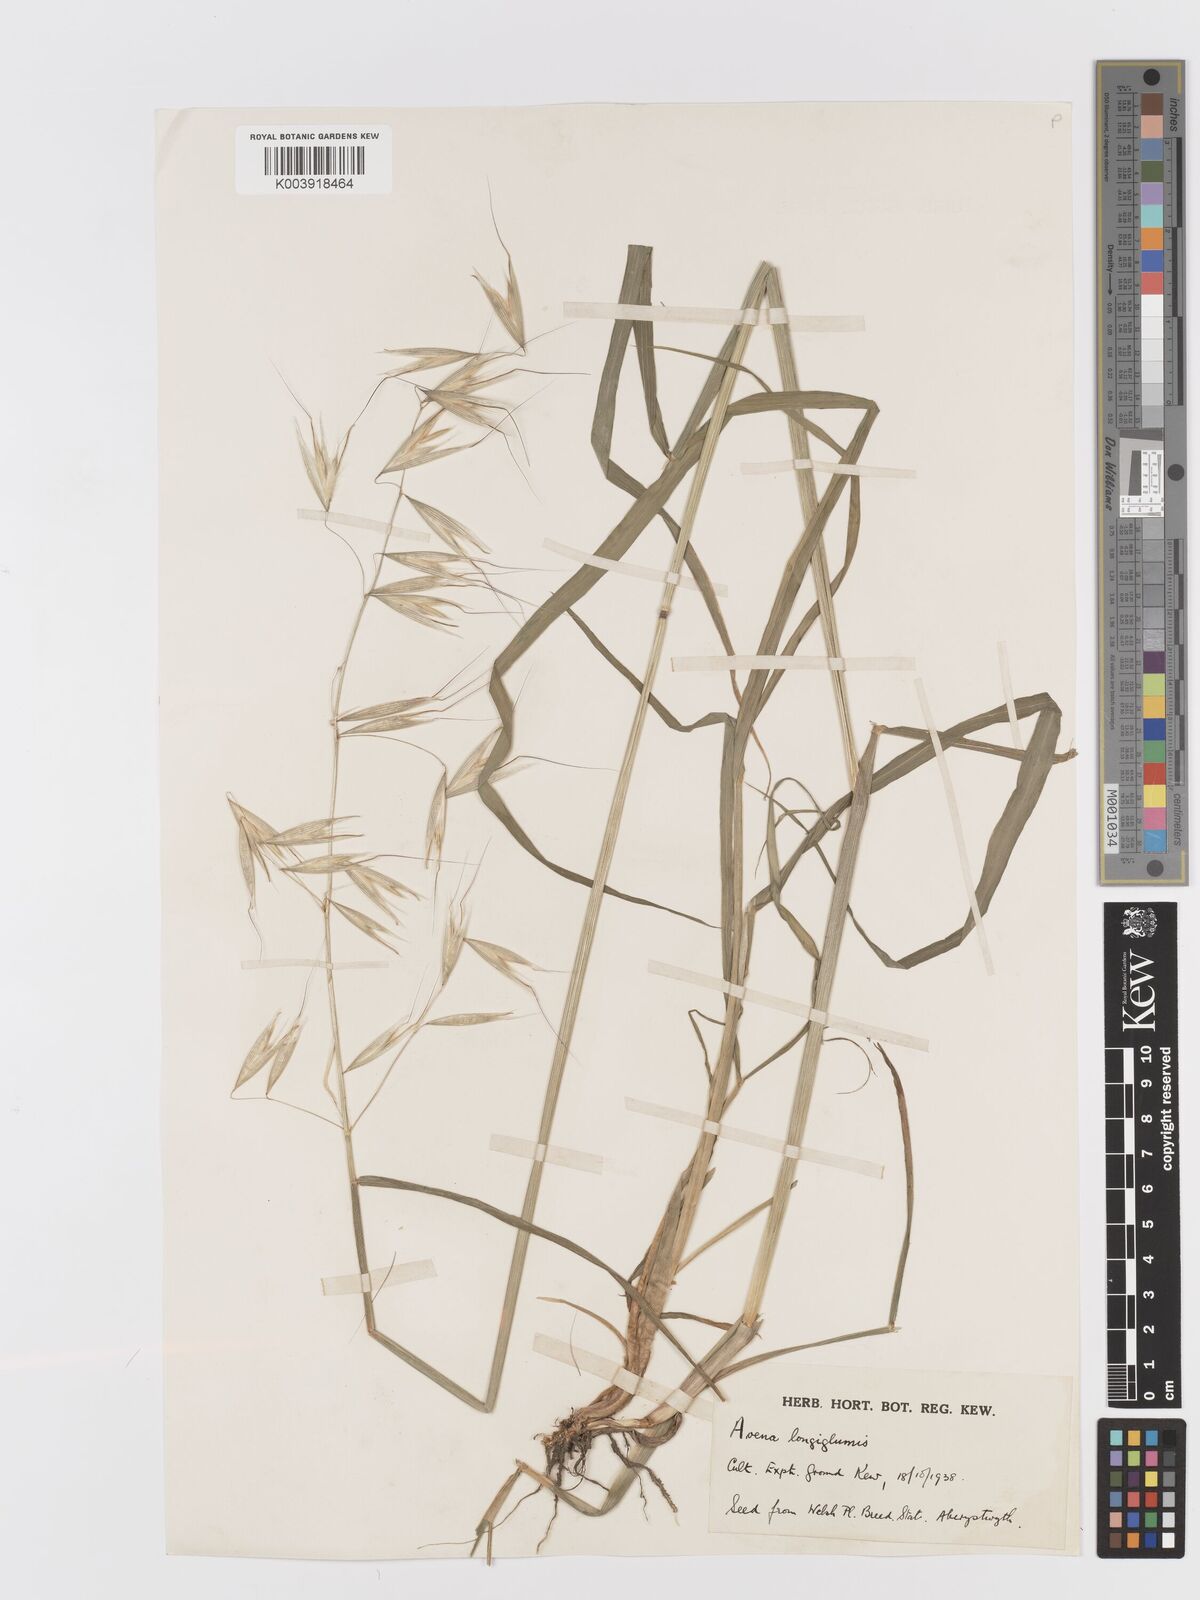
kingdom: Plantae
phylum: Tracheophyta
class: Liliopsida
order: Poales
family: Poaceae
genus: Avena
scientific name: Avena longiglumis
